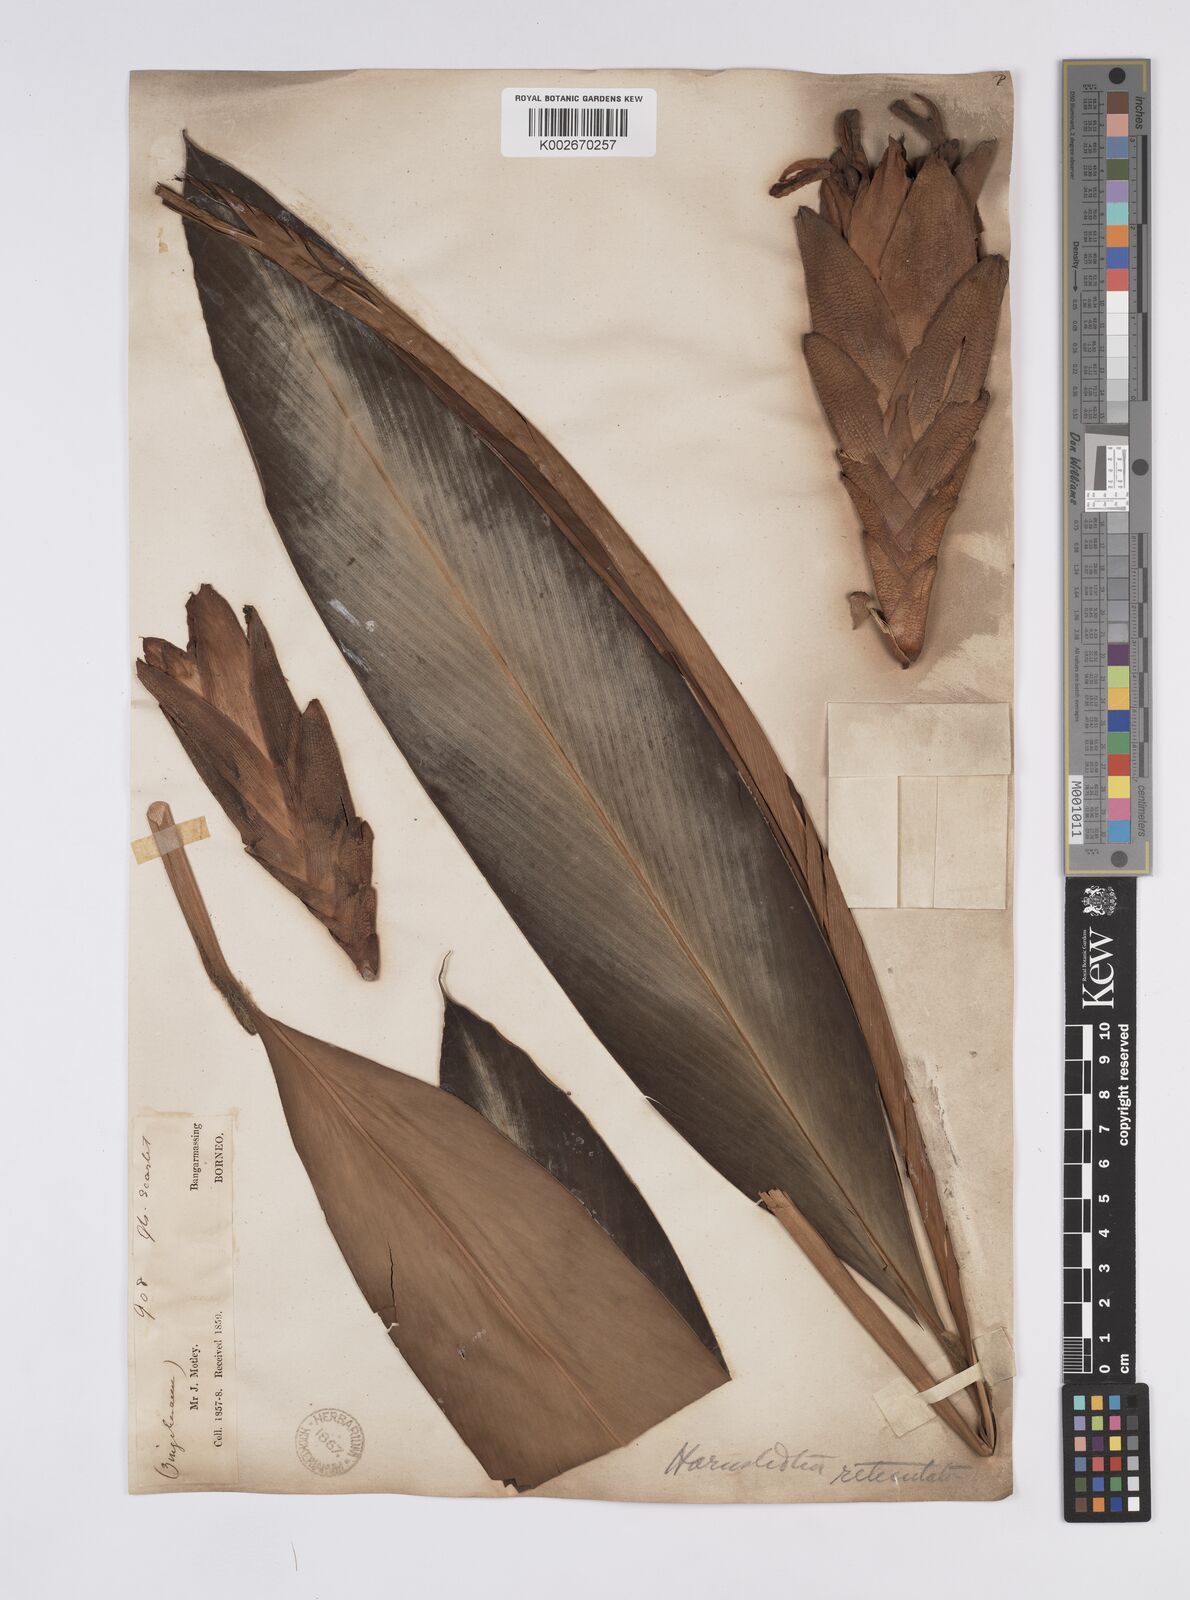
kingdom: Plantae
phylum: Tracheophyta
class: Liliopsida
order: Zingiberales
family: Zingiberaceae
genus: Hornstedtia
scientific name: Hornstedtia reticulata
